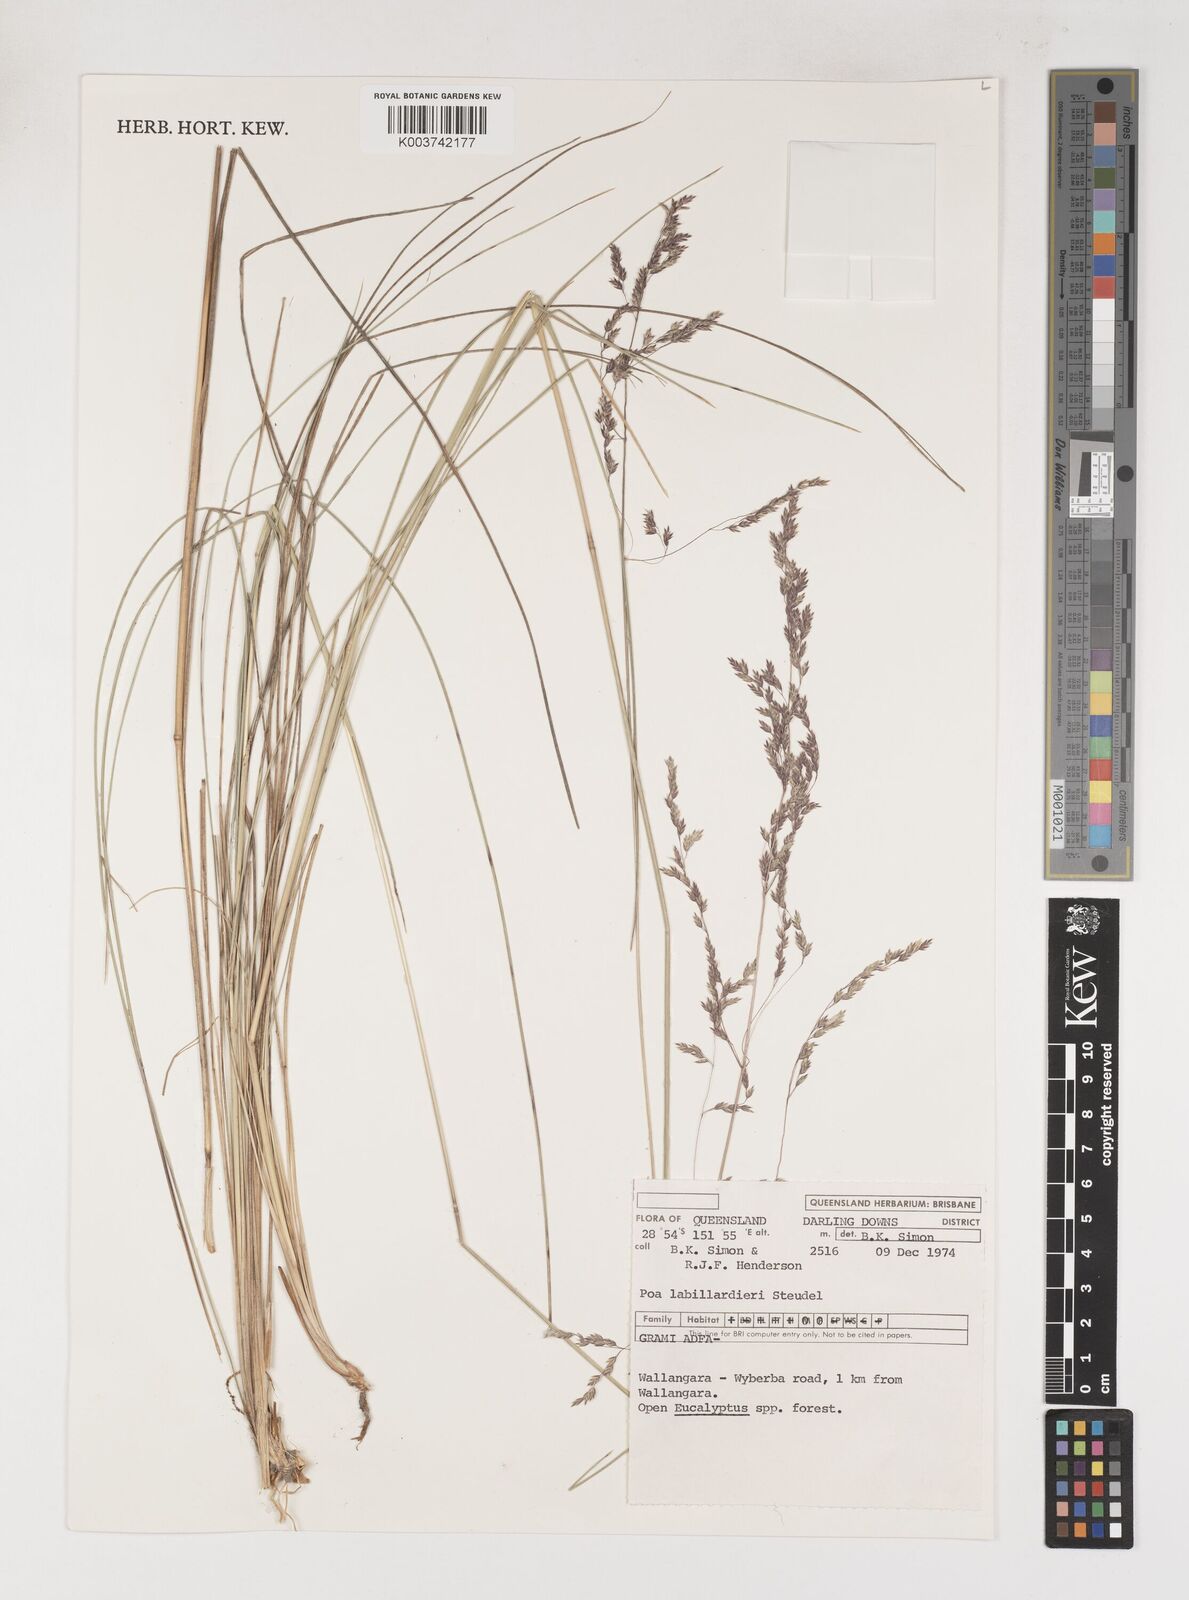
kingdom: Plantae
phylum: Tracheophyta
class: Liliopsida
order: Poales
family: Poaceae
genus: Poa
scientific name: Poa labillardierei
